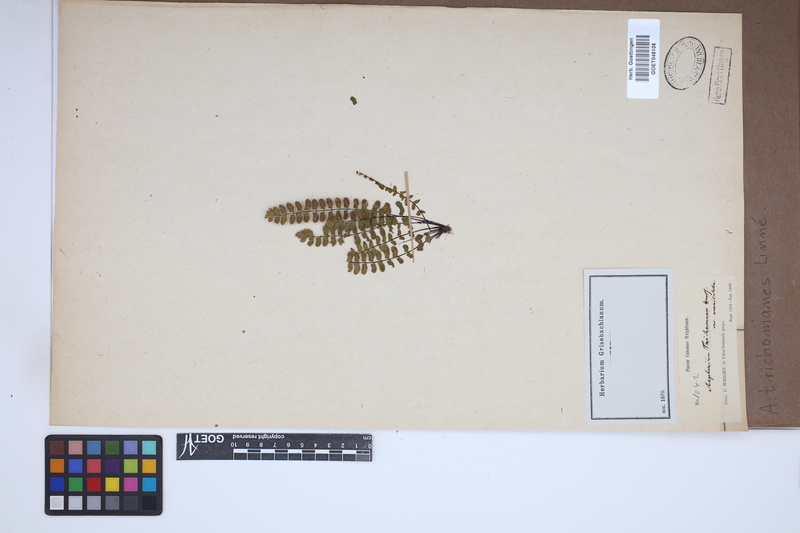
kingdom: Plantae
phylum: Tracheophyta
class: Polypodiopsida
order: Polypodiales
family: Aspleniaceae
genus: Asplenium
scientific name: Asplenium trichomanes
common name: Maidenhair spleenwort
